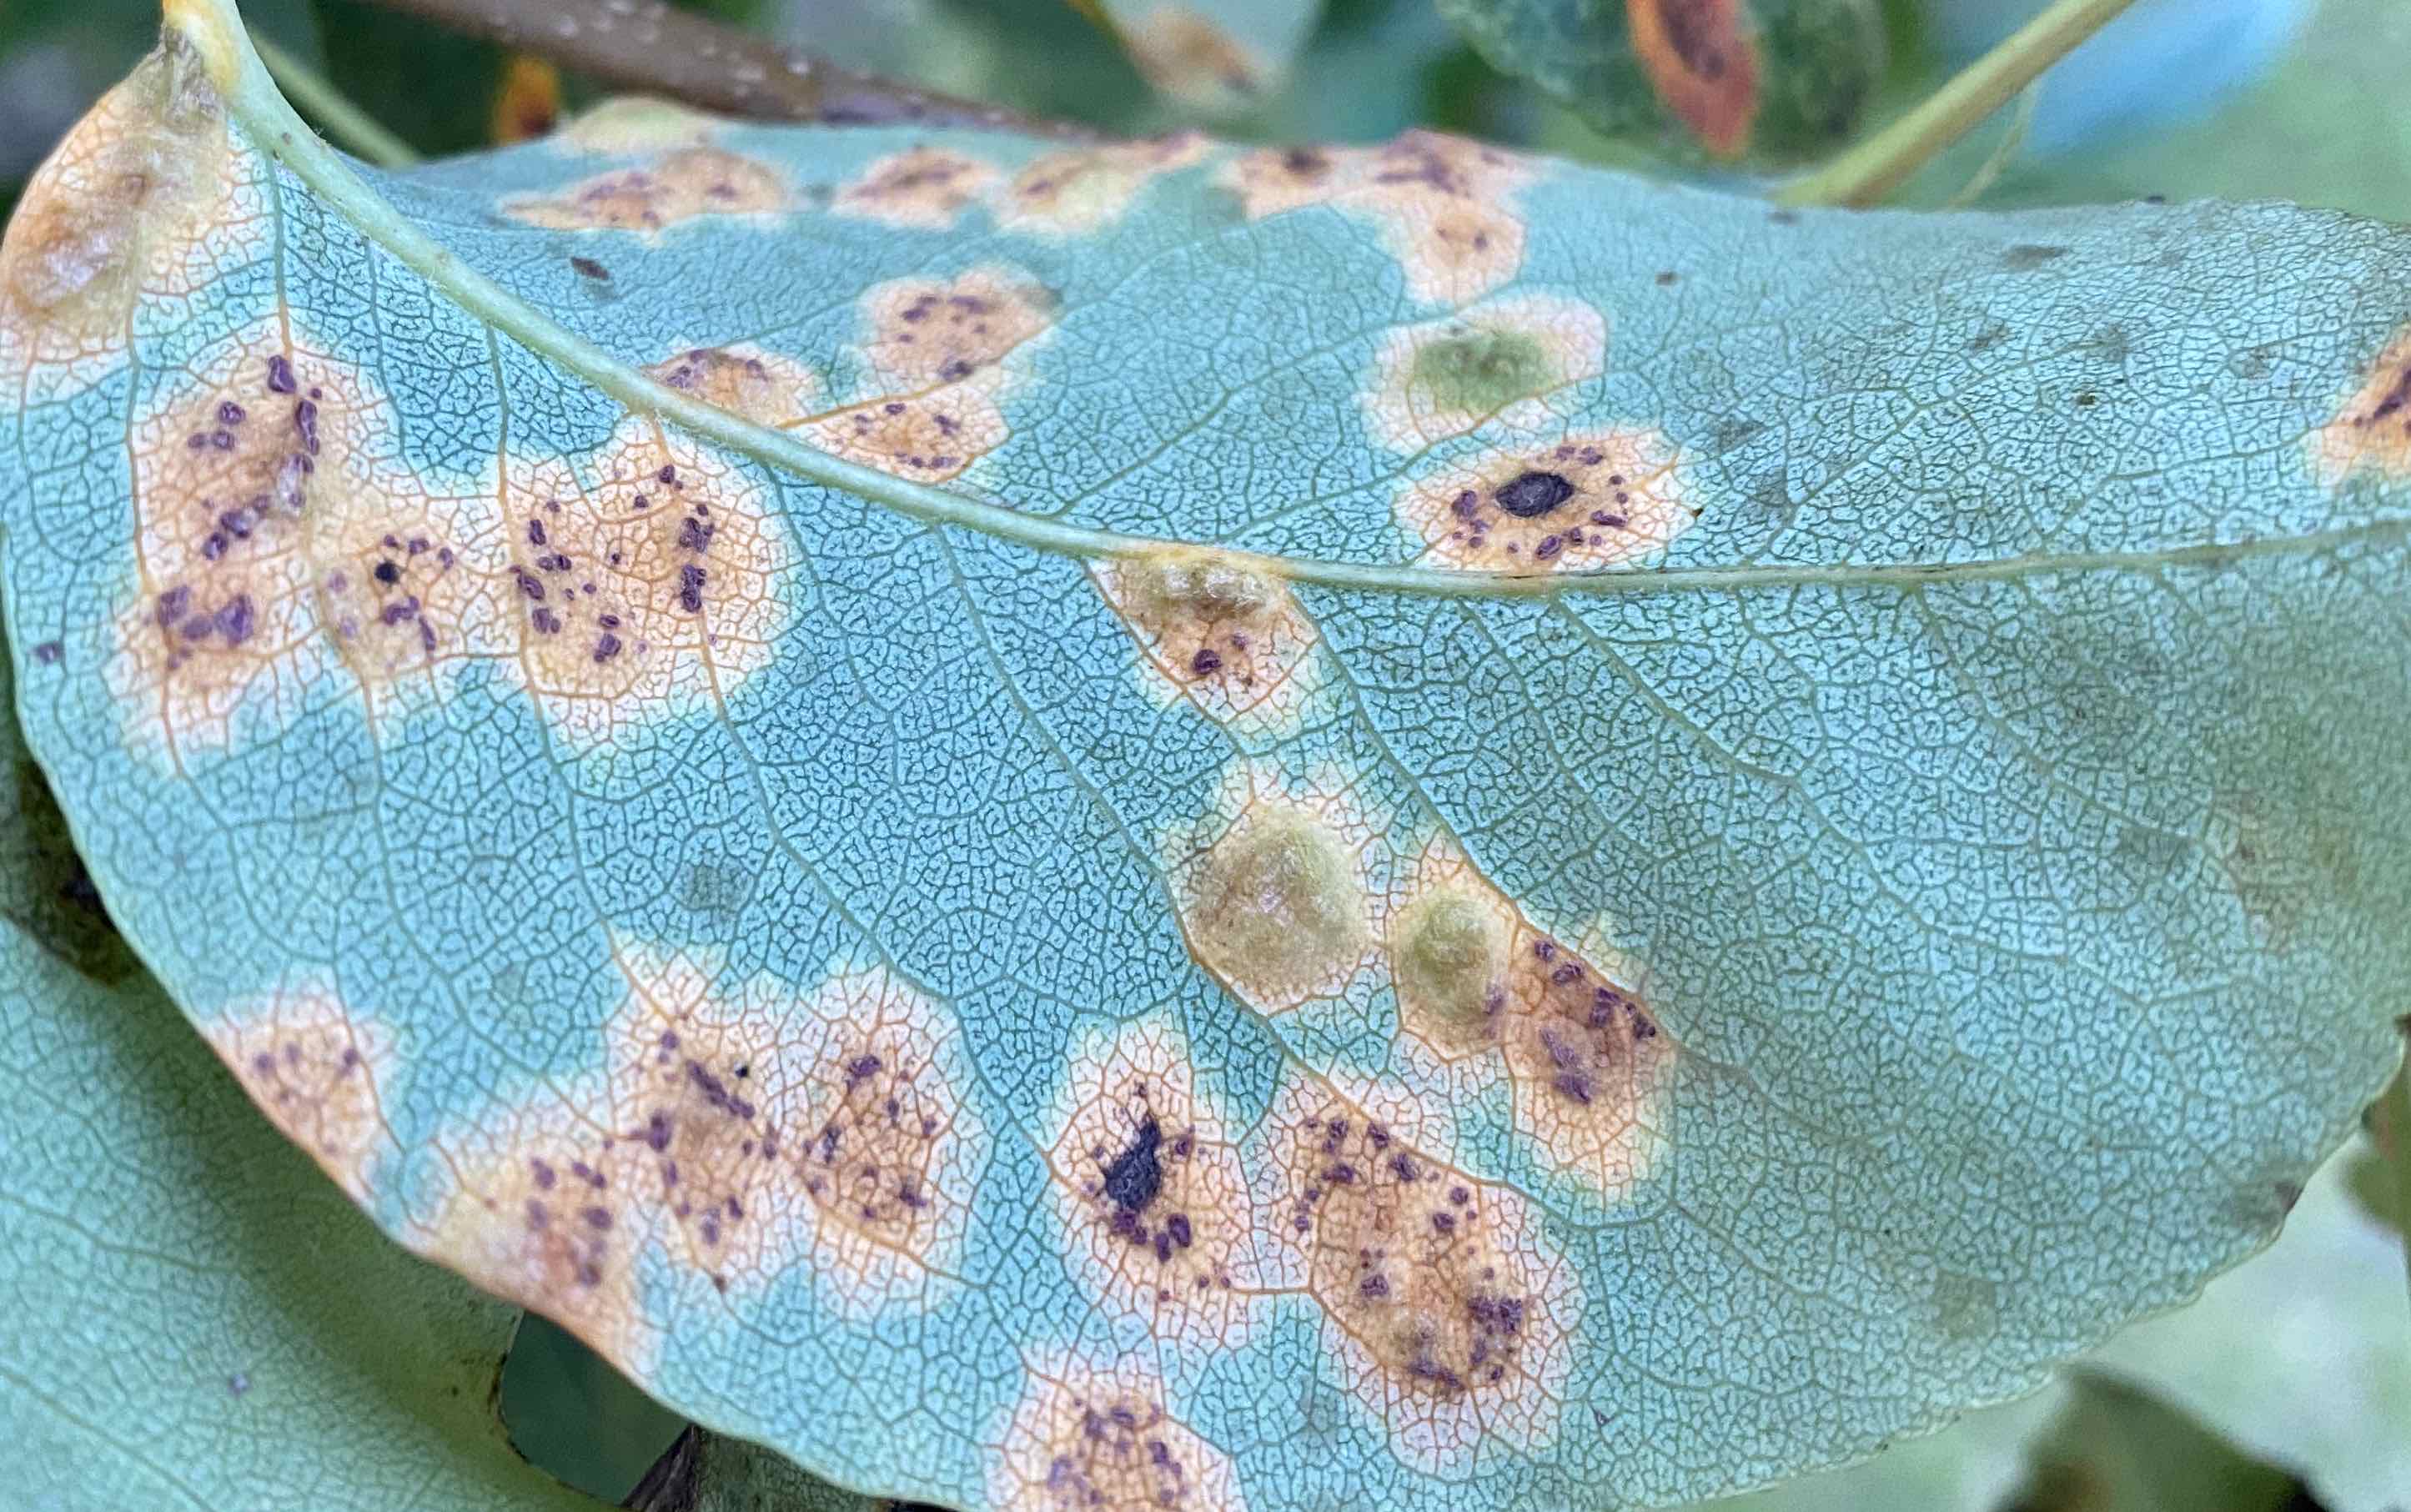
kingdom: Fungi
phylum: Basidiomycota
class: Pucciniomycetes
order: Pucciniales
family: Gymnosporangiaceae
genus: Gymnosporangium
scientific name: Gymnosporangium sabinae
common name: pæregitter-bævrerust
